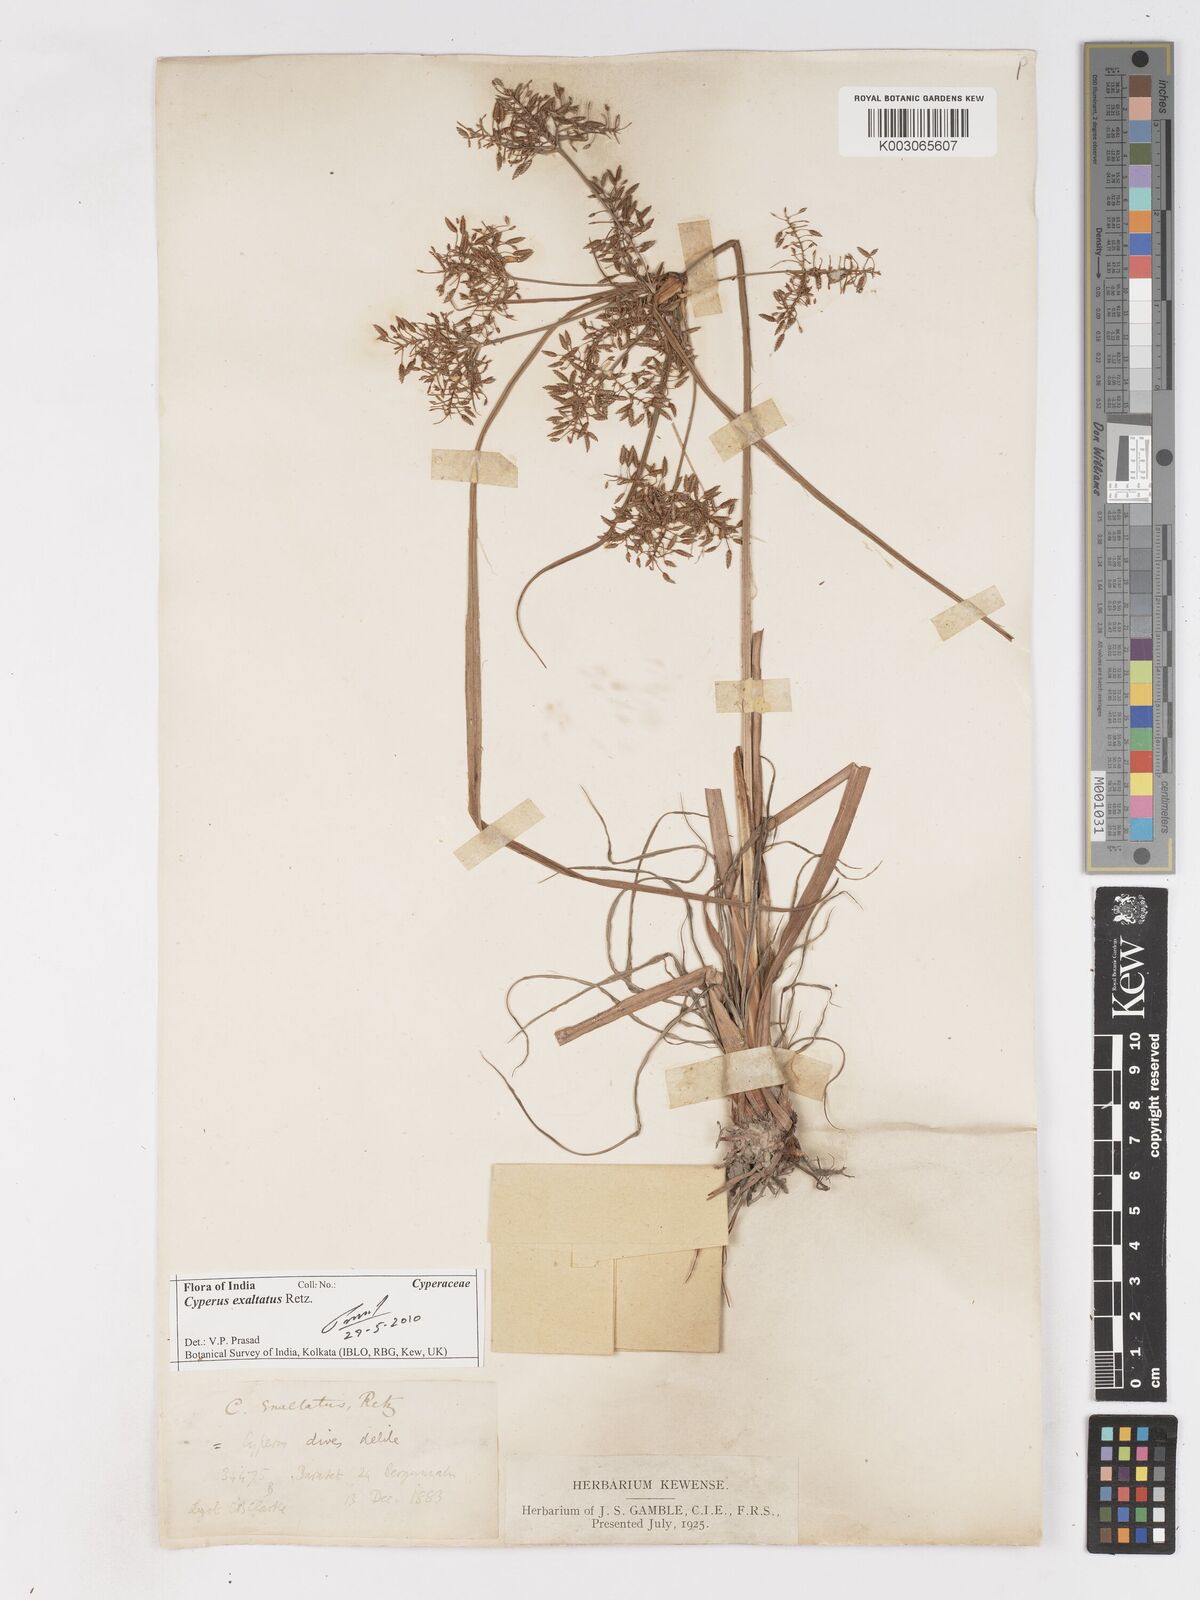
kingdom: Plantae
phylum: Tracheophyta
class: Liliopsida
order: Poales
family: Cyperaceae
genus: Cyperus
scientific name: Cyperus exaltatus
